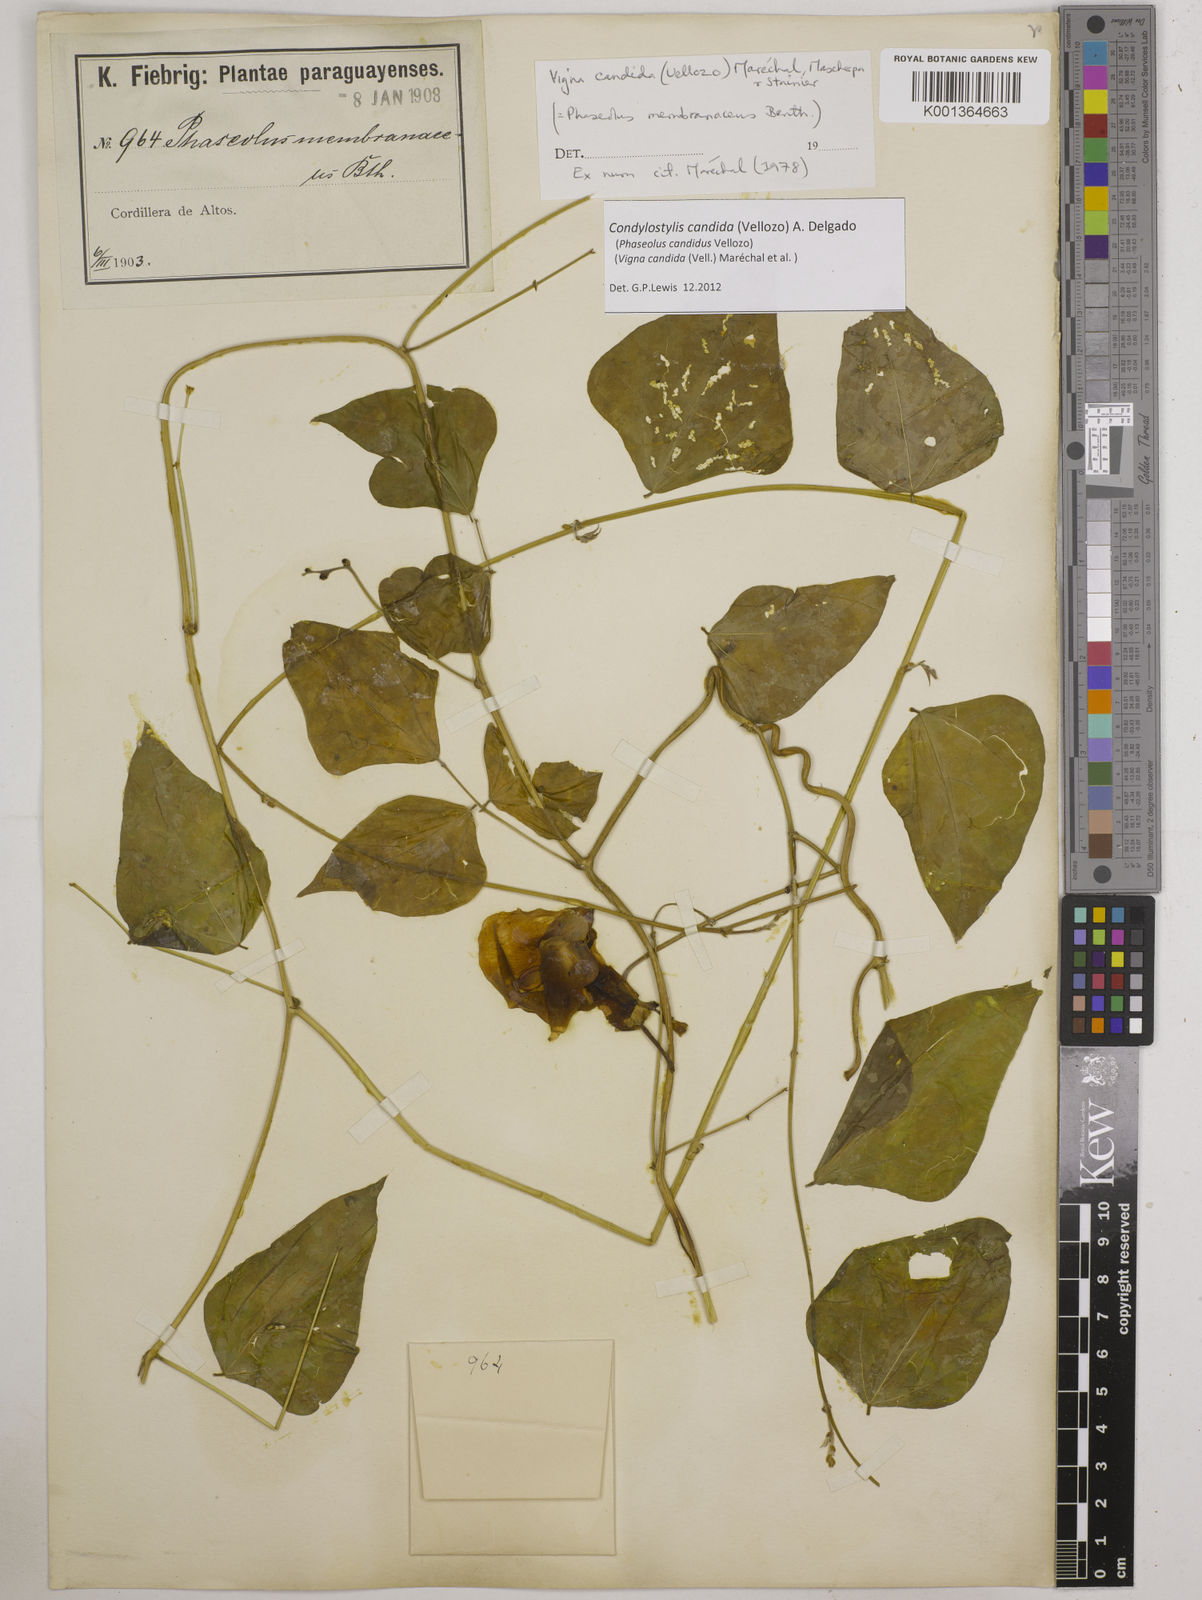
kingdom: Plantae
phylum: Tracheophyta
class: Magnoliopsida
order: Fabales
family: Fabaceae
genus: Condylostylis
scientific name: Condylostylis candida
